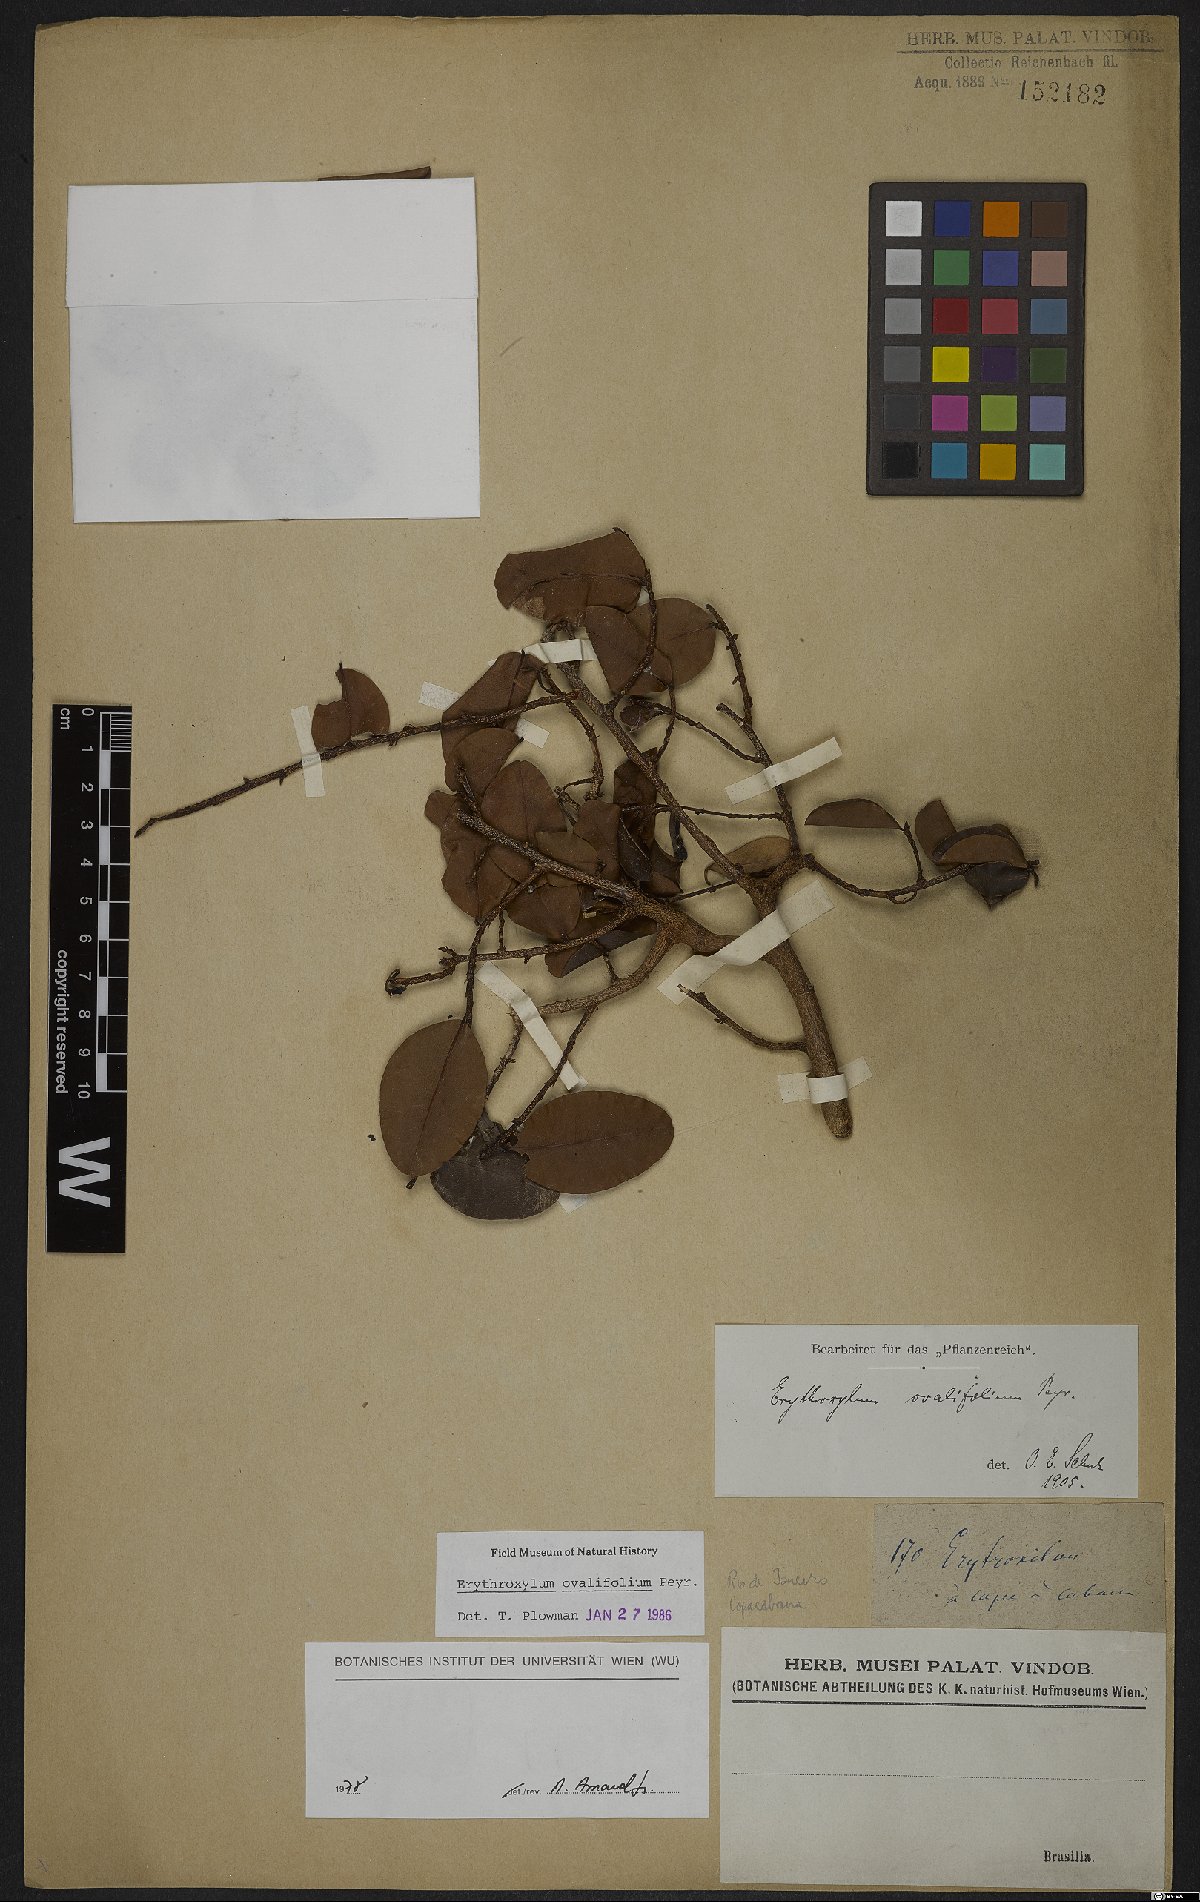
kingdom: Plantae
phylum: Tracheophyta
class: Magnoliopsida
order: Malpighiales
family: Erythroxylaceae
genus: Erythroxylum
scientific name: Erythroxylum ovalifolium
